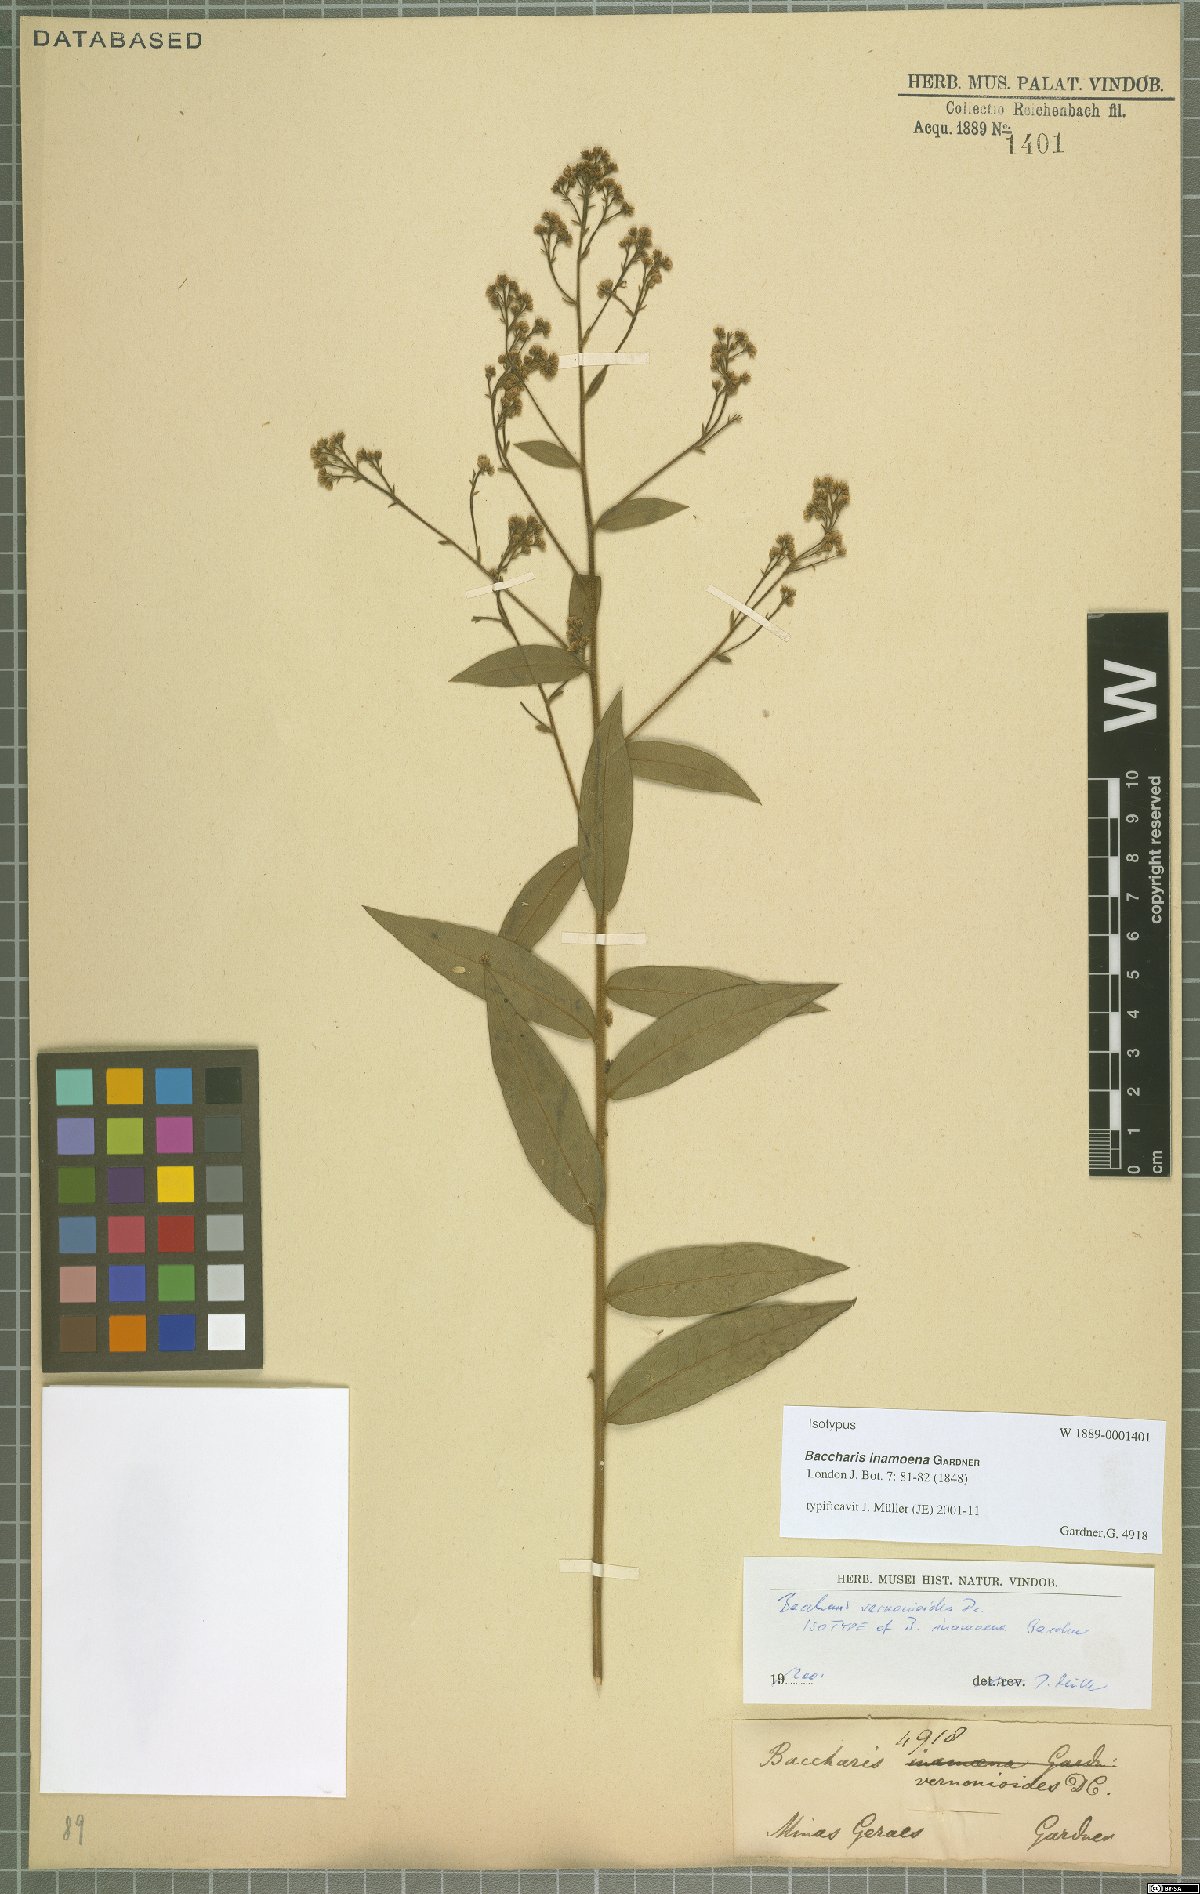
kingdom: Plantae
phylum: Tracheophyta
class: Magnoliopsida
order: Asterales
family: Asteraceae
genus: Baccharis
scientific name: Baccharis rufidula
